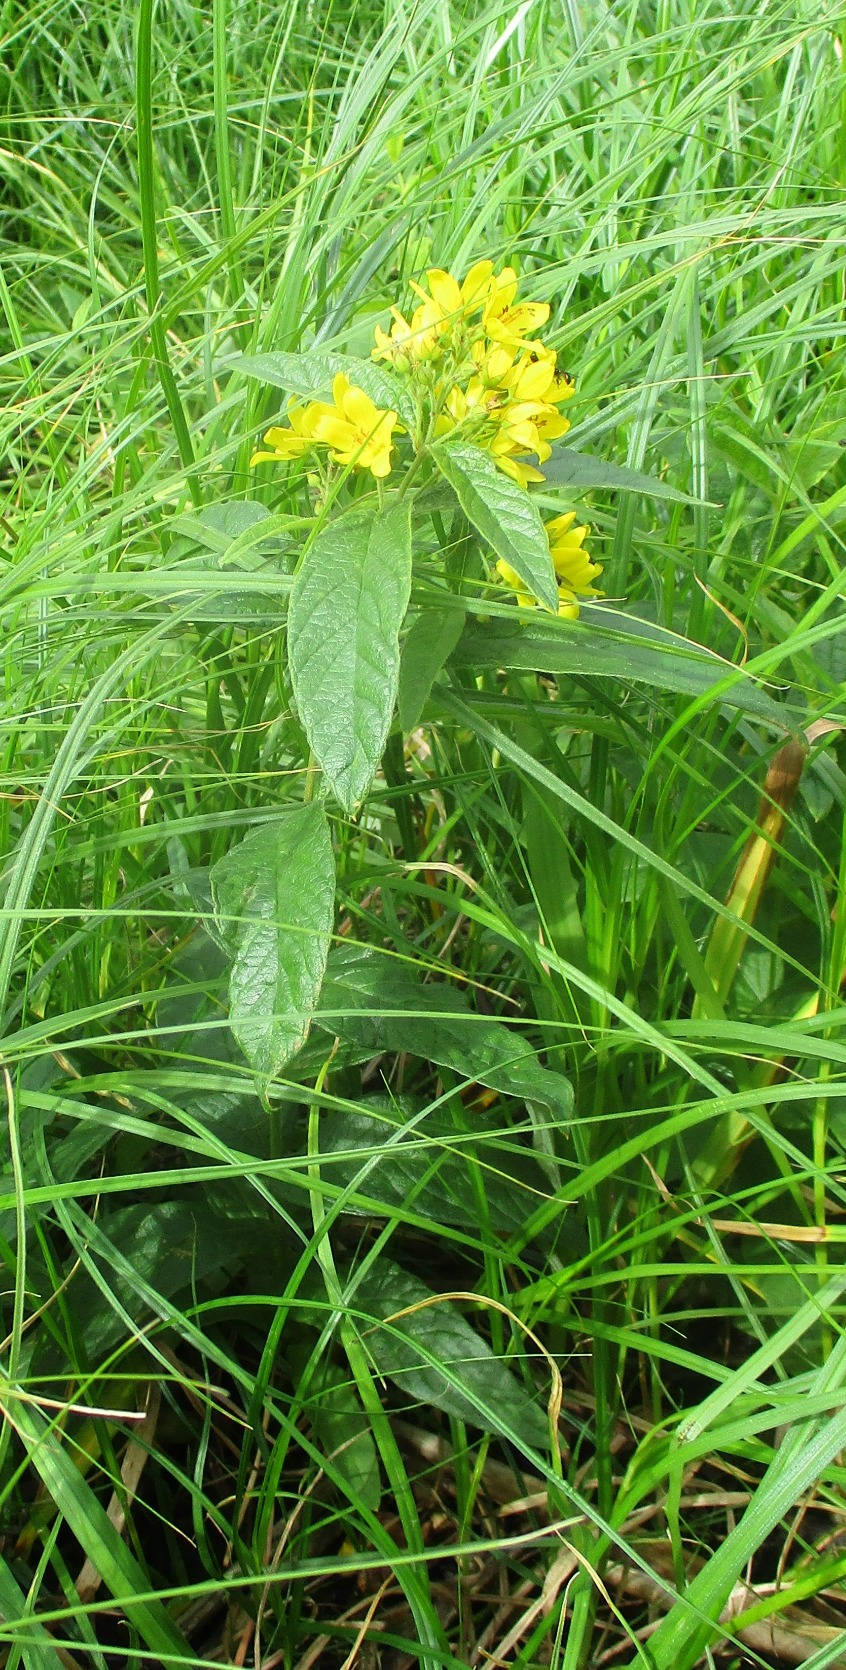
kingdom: Plantae
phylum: Tracheophyta
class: Magnoliopsida
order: Ericales
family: Primulaceae
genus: Lysimachia
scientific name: Lysimachia vulgaris
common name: Almindelig fredløs
